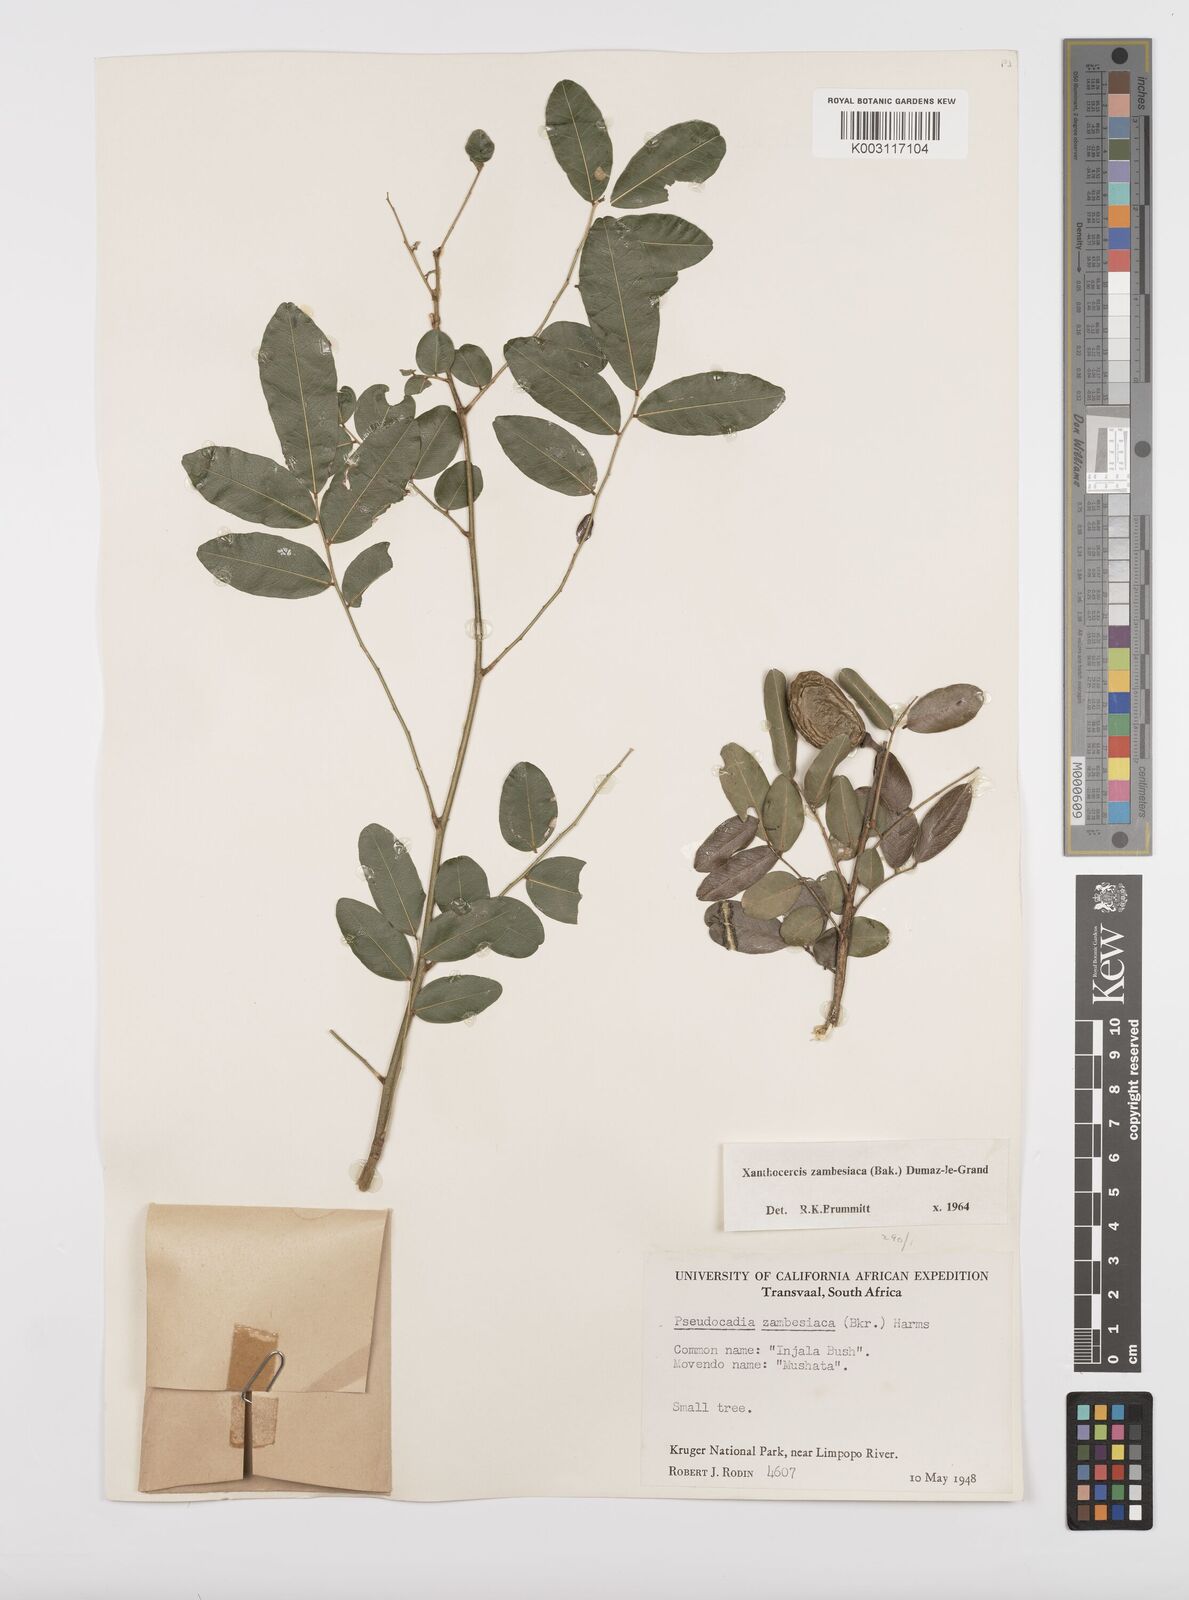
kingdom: Plantae
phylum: Tracheophyta
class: Magnoliopsida
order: Fabales
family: Fabaceae
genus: Xanthocercis
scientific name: Xanthocercis zambesiaca
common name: Nyala-tree
